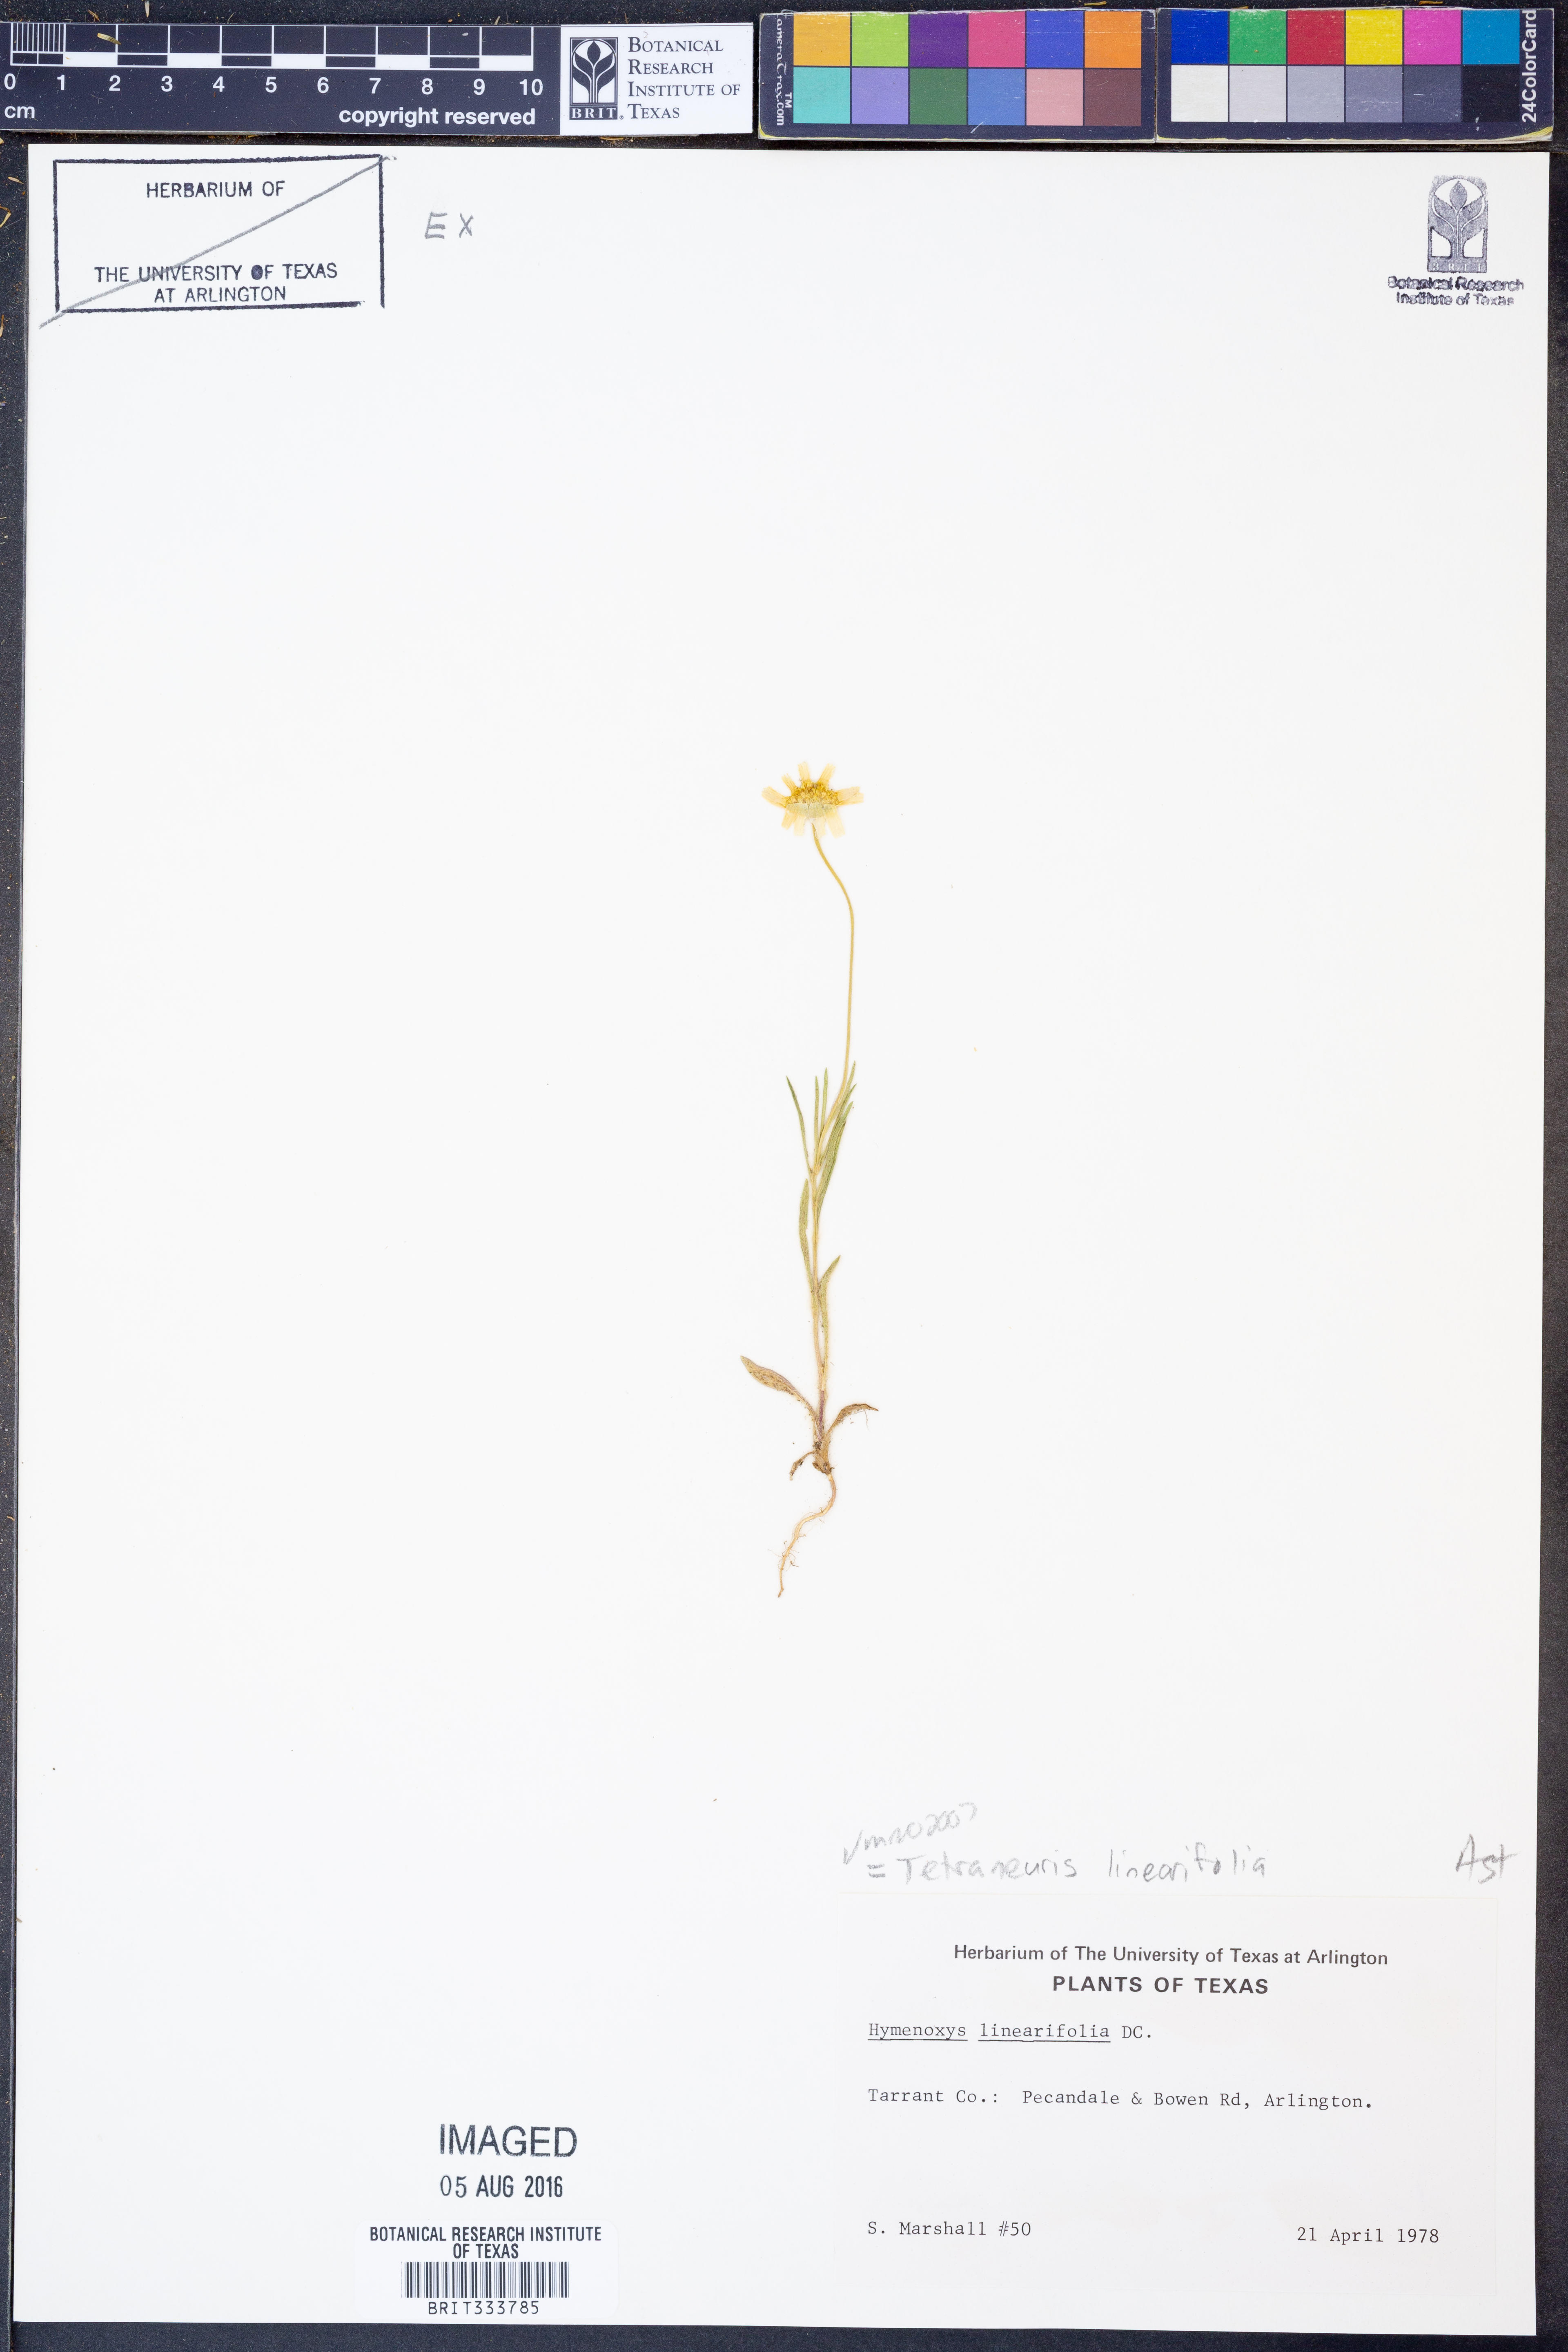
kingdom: Plantae
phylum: Tracheophyta
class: Magnoliopsida
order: Asterales
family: Asteraceae
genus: Tetraneuris
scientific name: Tetraneuris linearifolia
